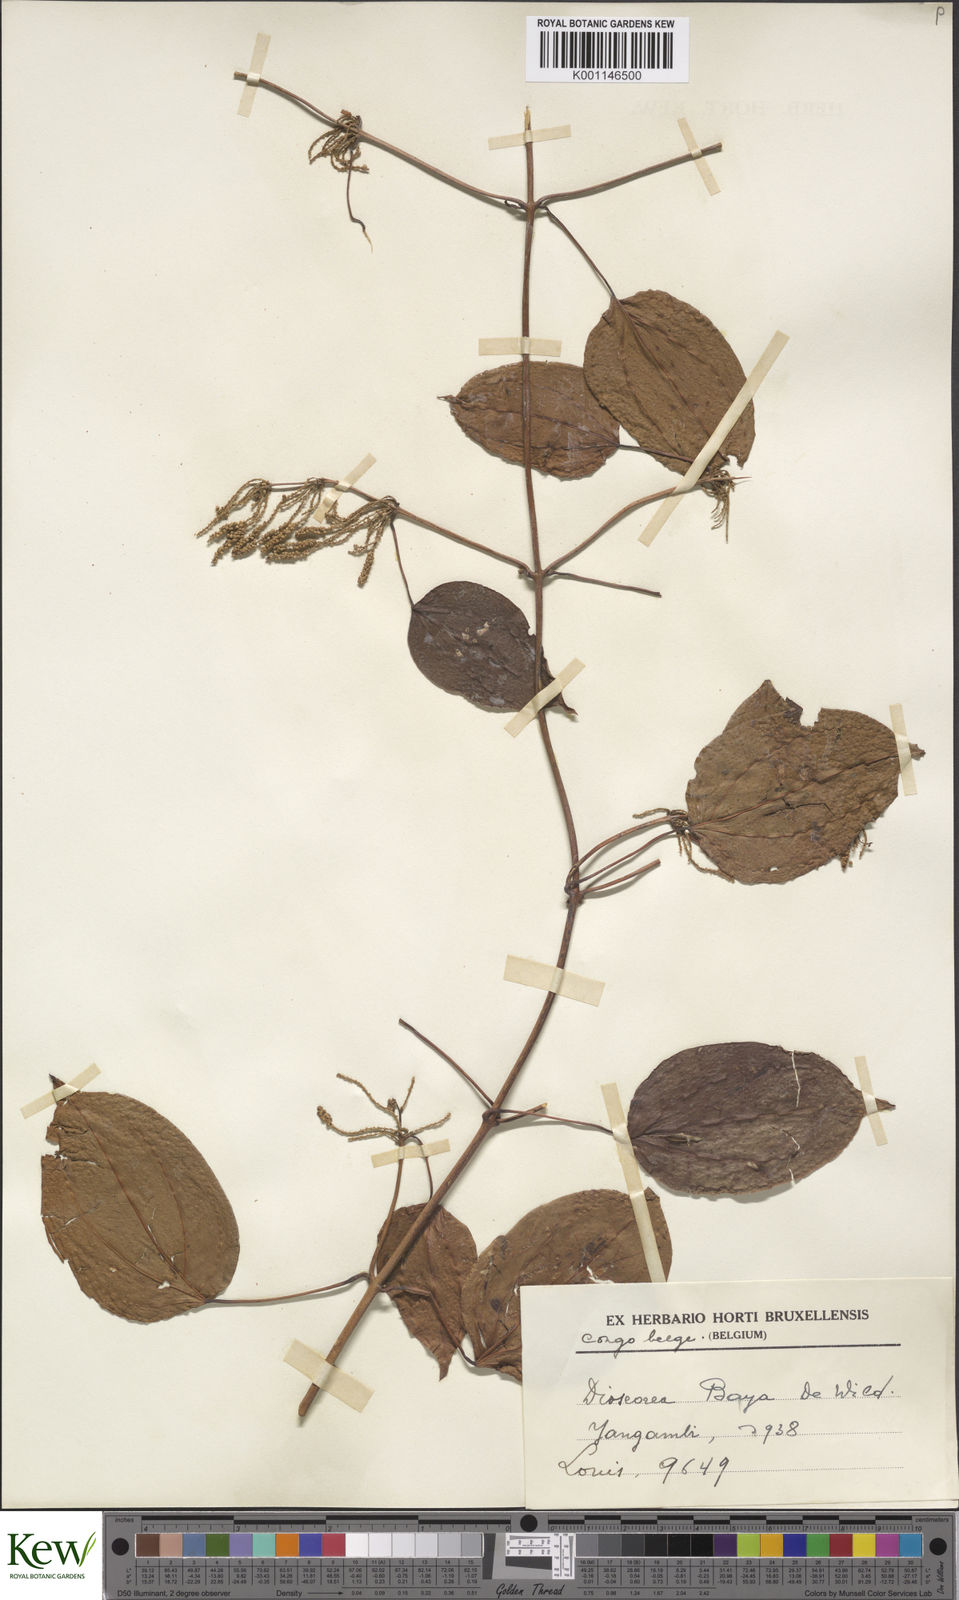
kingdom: Plantae
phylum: Tracheophyta
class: Liliopsida
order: Dioscoreales
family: Dioscoreaceae
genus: Dioscorea
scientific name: Dioscorea baya
